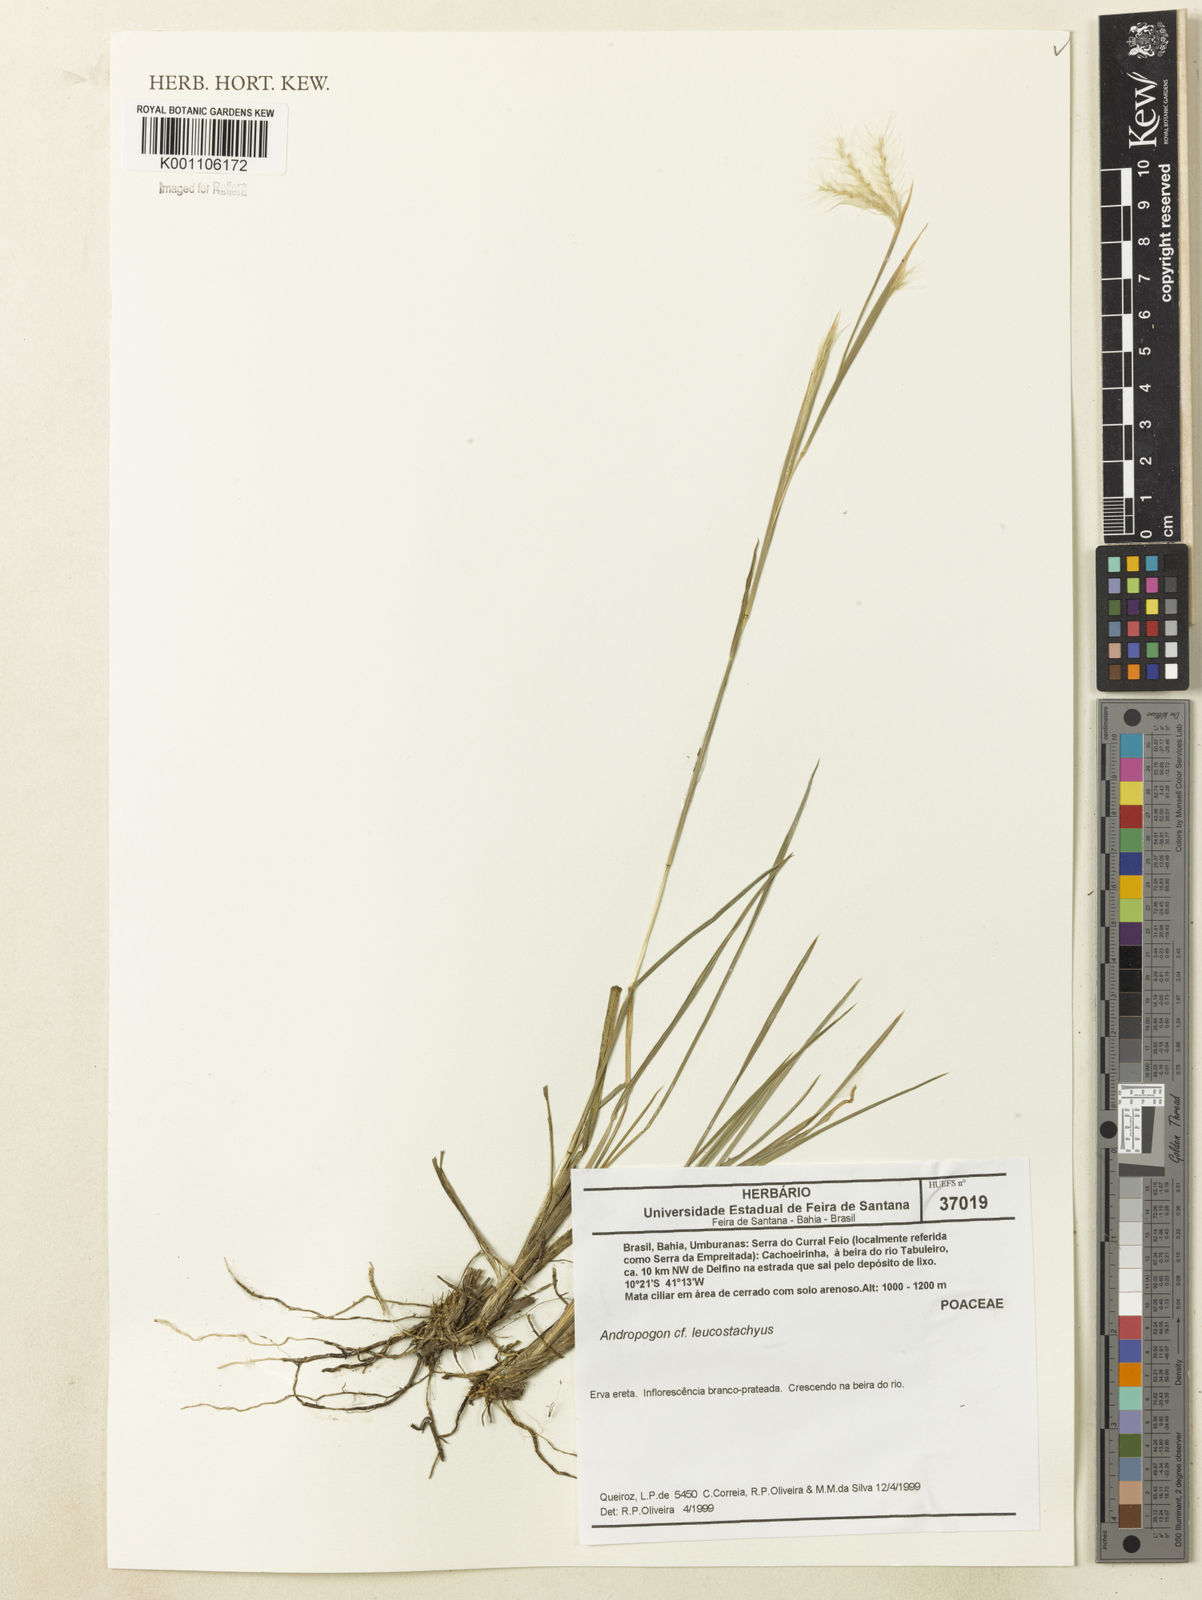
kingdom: Plantae
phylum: Tracheophyta
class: Liliopsida
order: Poales
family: Poaceae
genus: Andropogon
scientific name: Andropogon leucostachyus
